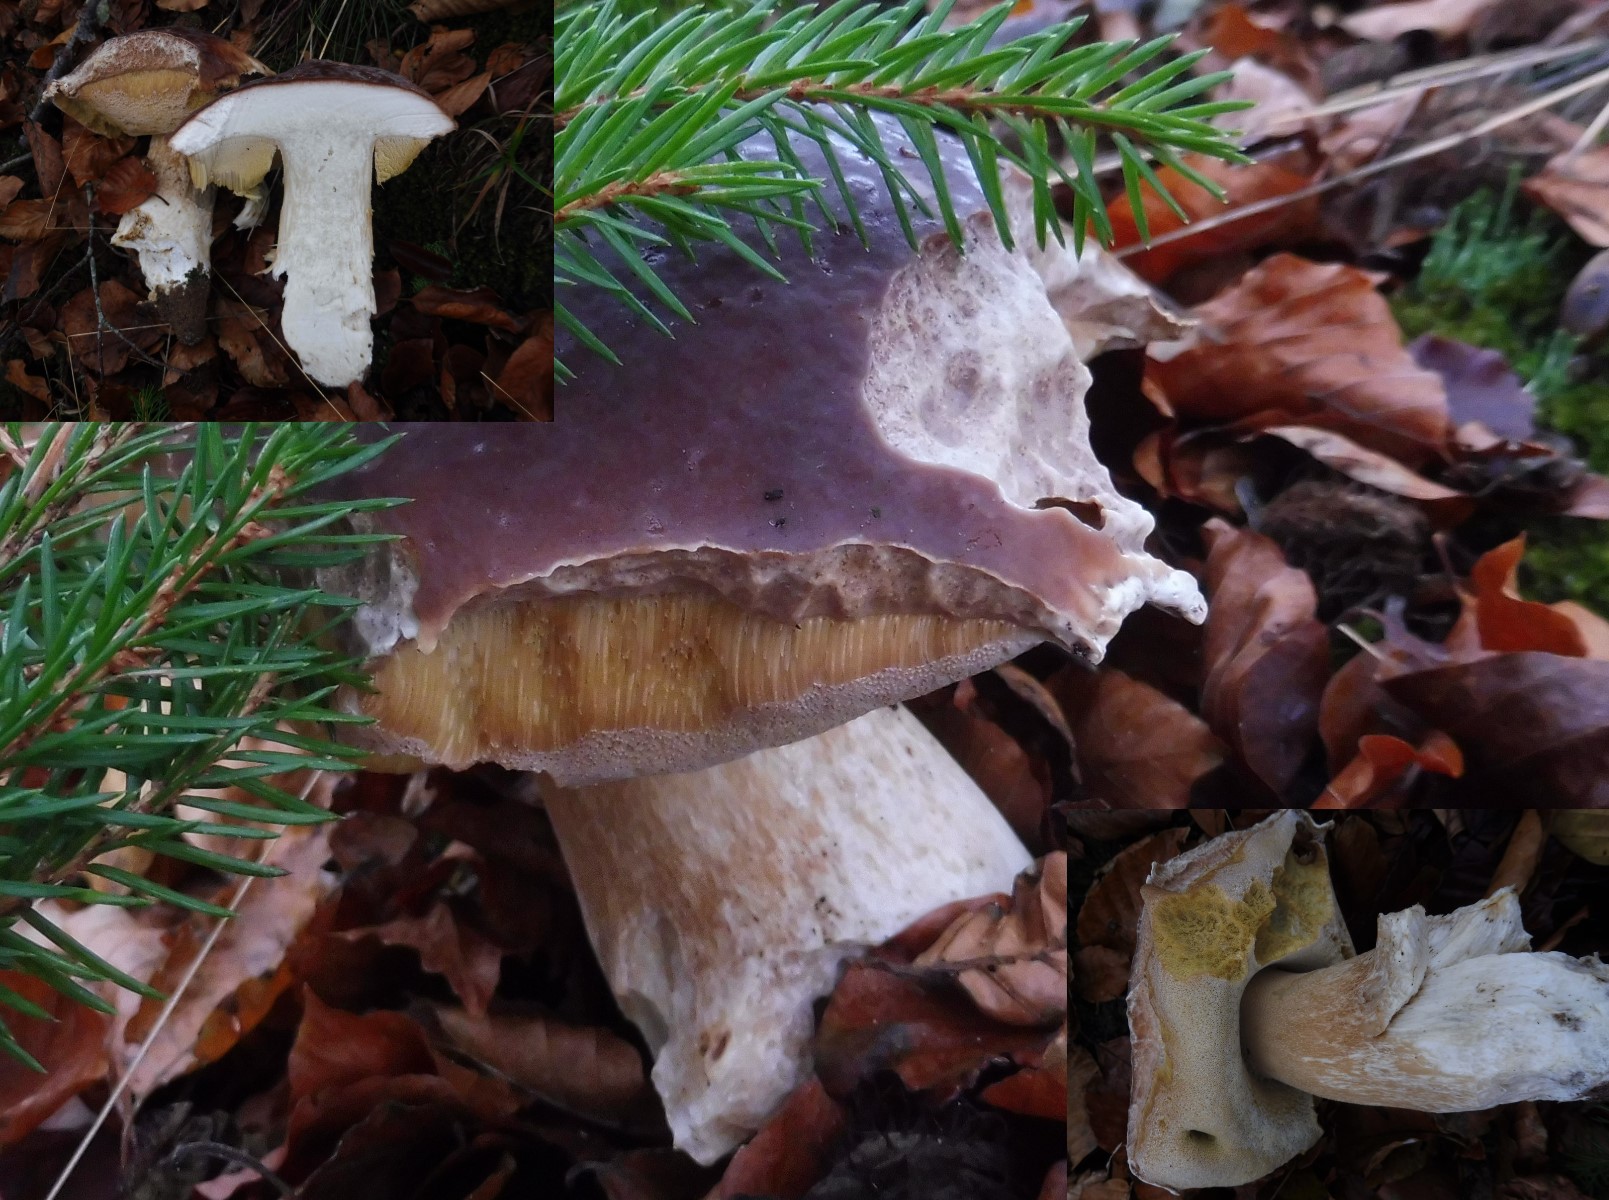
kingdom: Fungi
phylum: Basidiomycota
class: Agaricomycetes
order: Boletales
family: Boletaceae
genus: Boletus
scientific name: Boletus edulis
